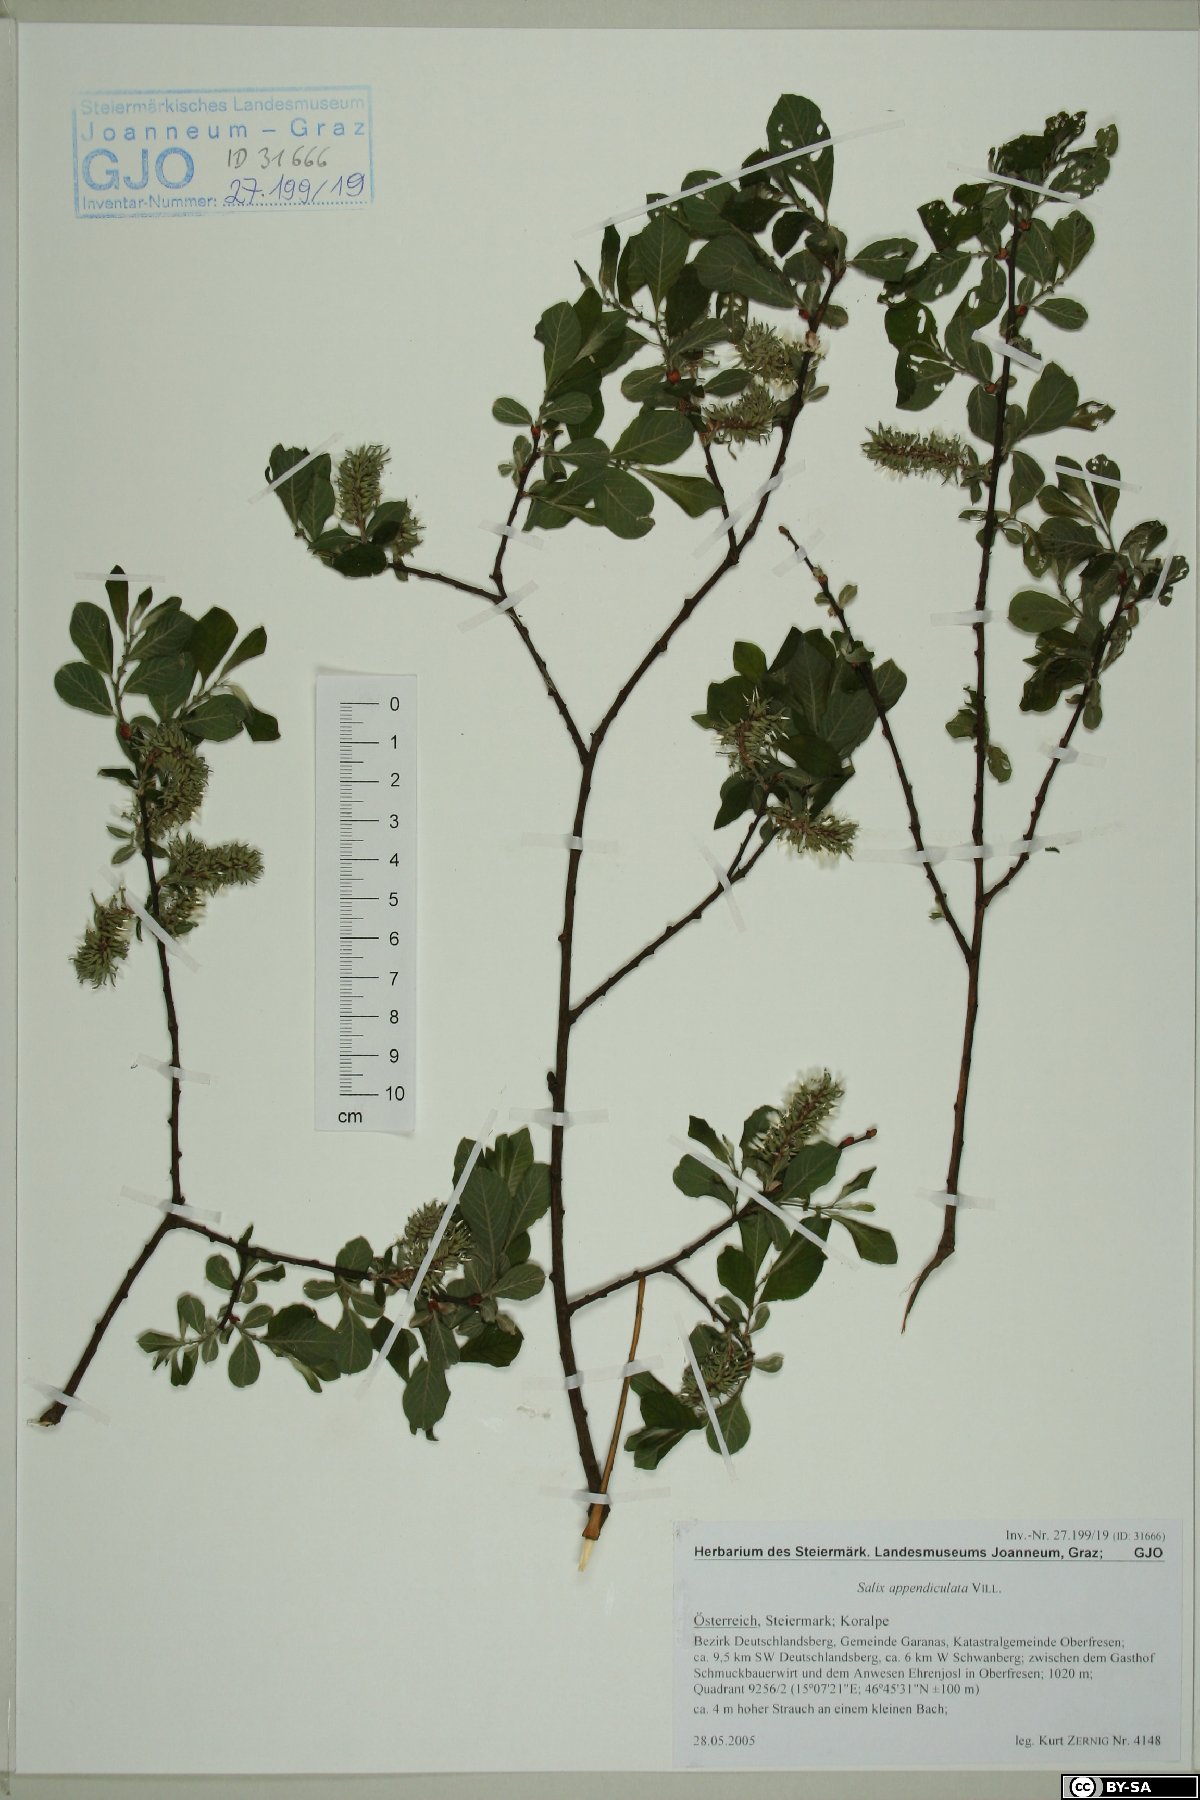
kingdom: Plantae
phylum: Tracheophyta
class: Magnoliopsida
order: Malpighiales
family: Salicaceae
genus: Salix
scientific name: Salix appendiculata
